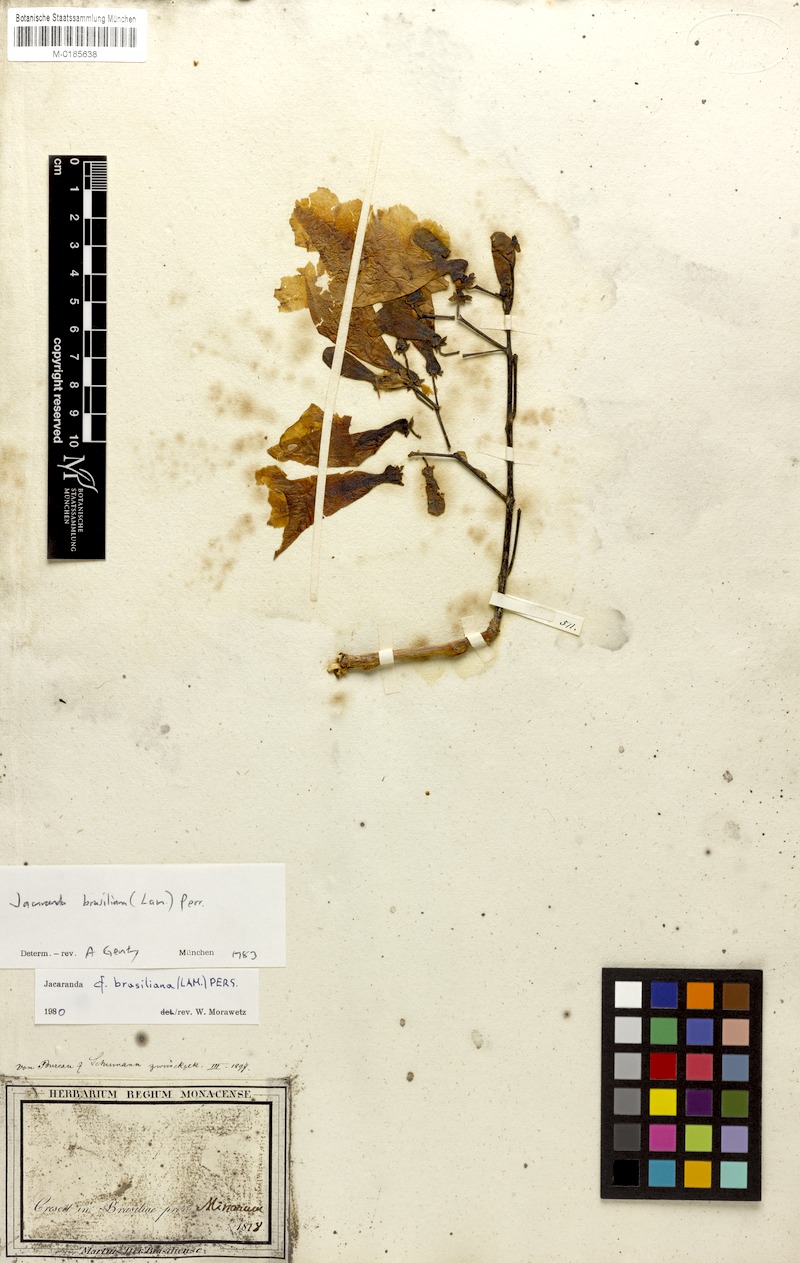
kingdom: Plantae
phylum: Tracheophyta
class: Magnoliopsida
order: Lamiales
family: Bignoniaceae
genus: Jacaranda
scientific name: Jacaranda brasiliana
